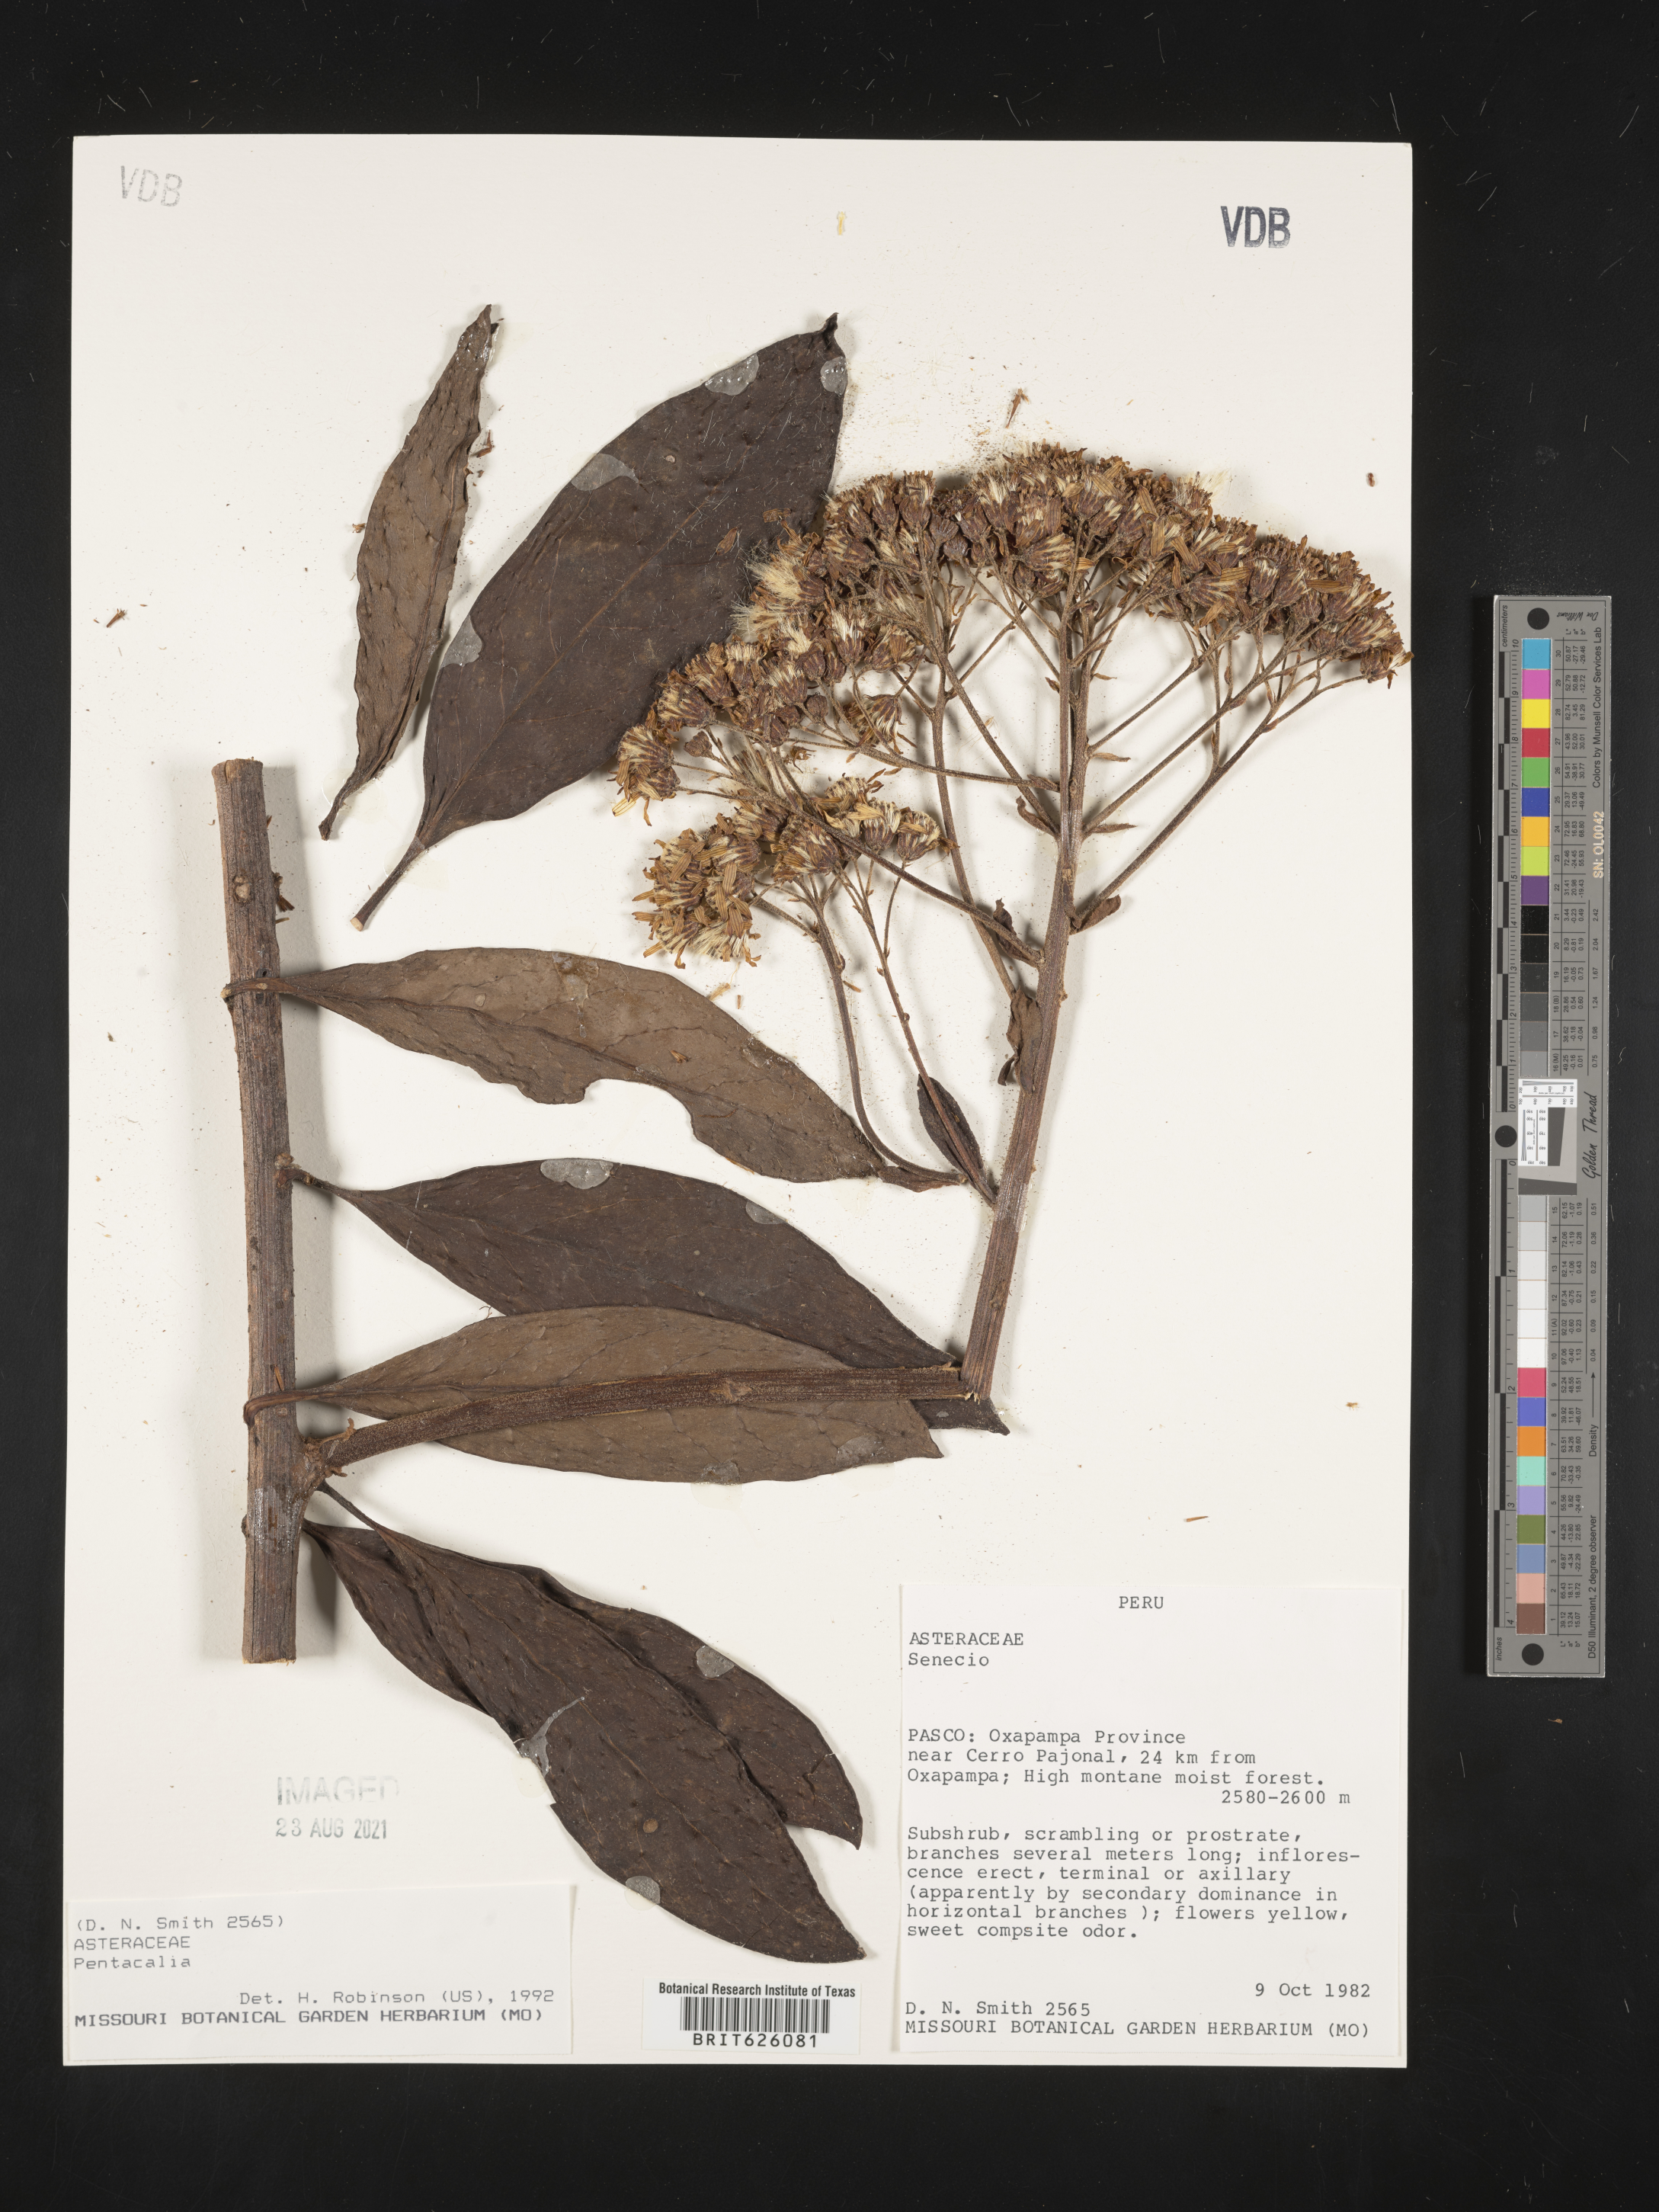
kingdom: Plantae
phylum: Tracheophyta
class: Magnoliopsida
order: Asterales
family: Asteraceae
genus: Pentacalia
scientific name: Pentacalia
